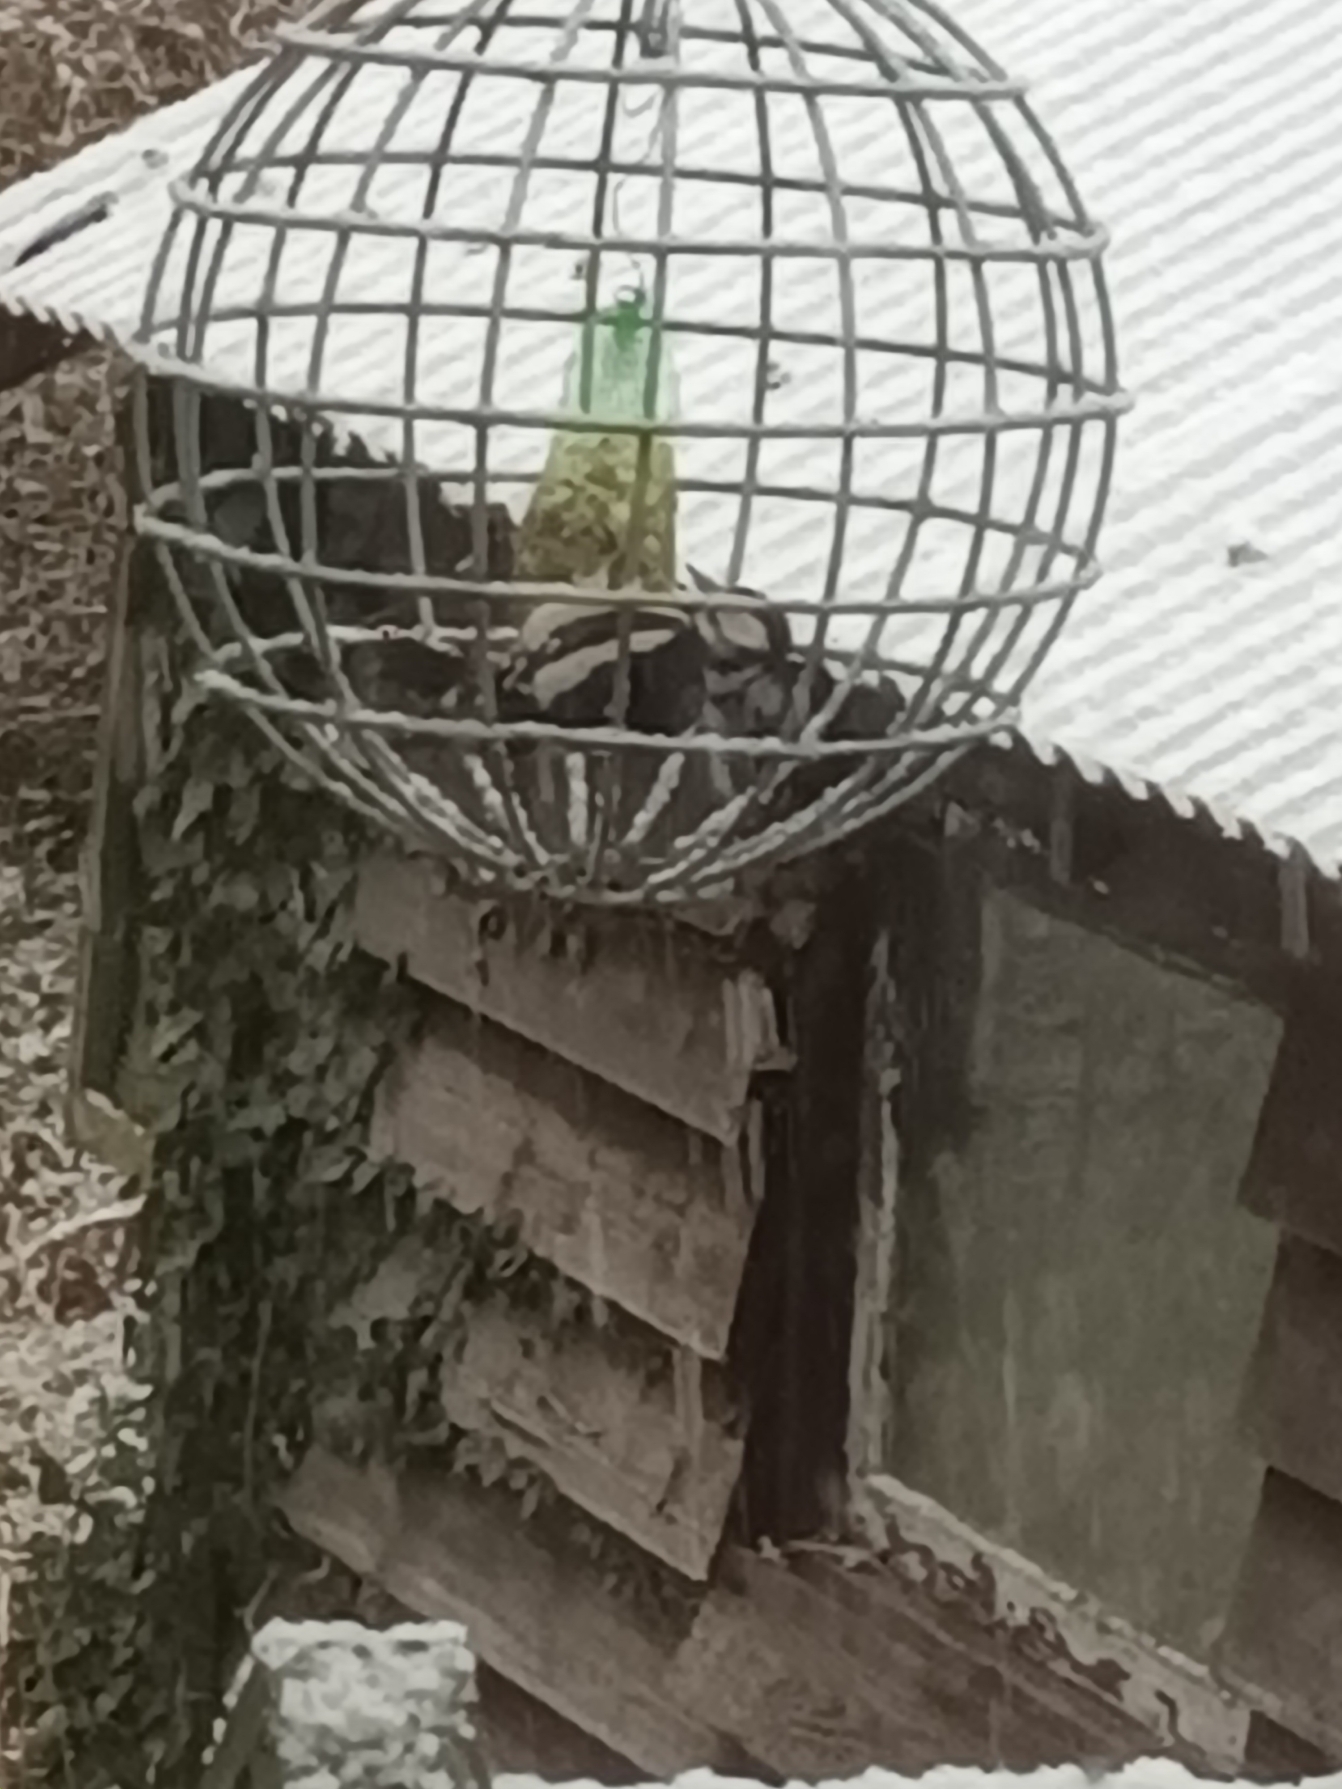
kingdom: Animalia
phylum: Chordata
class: Aves
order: Piciformes
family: Picidae
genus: Dendrocopos
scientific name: Dendrocopos major
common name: Stor flagspætte
